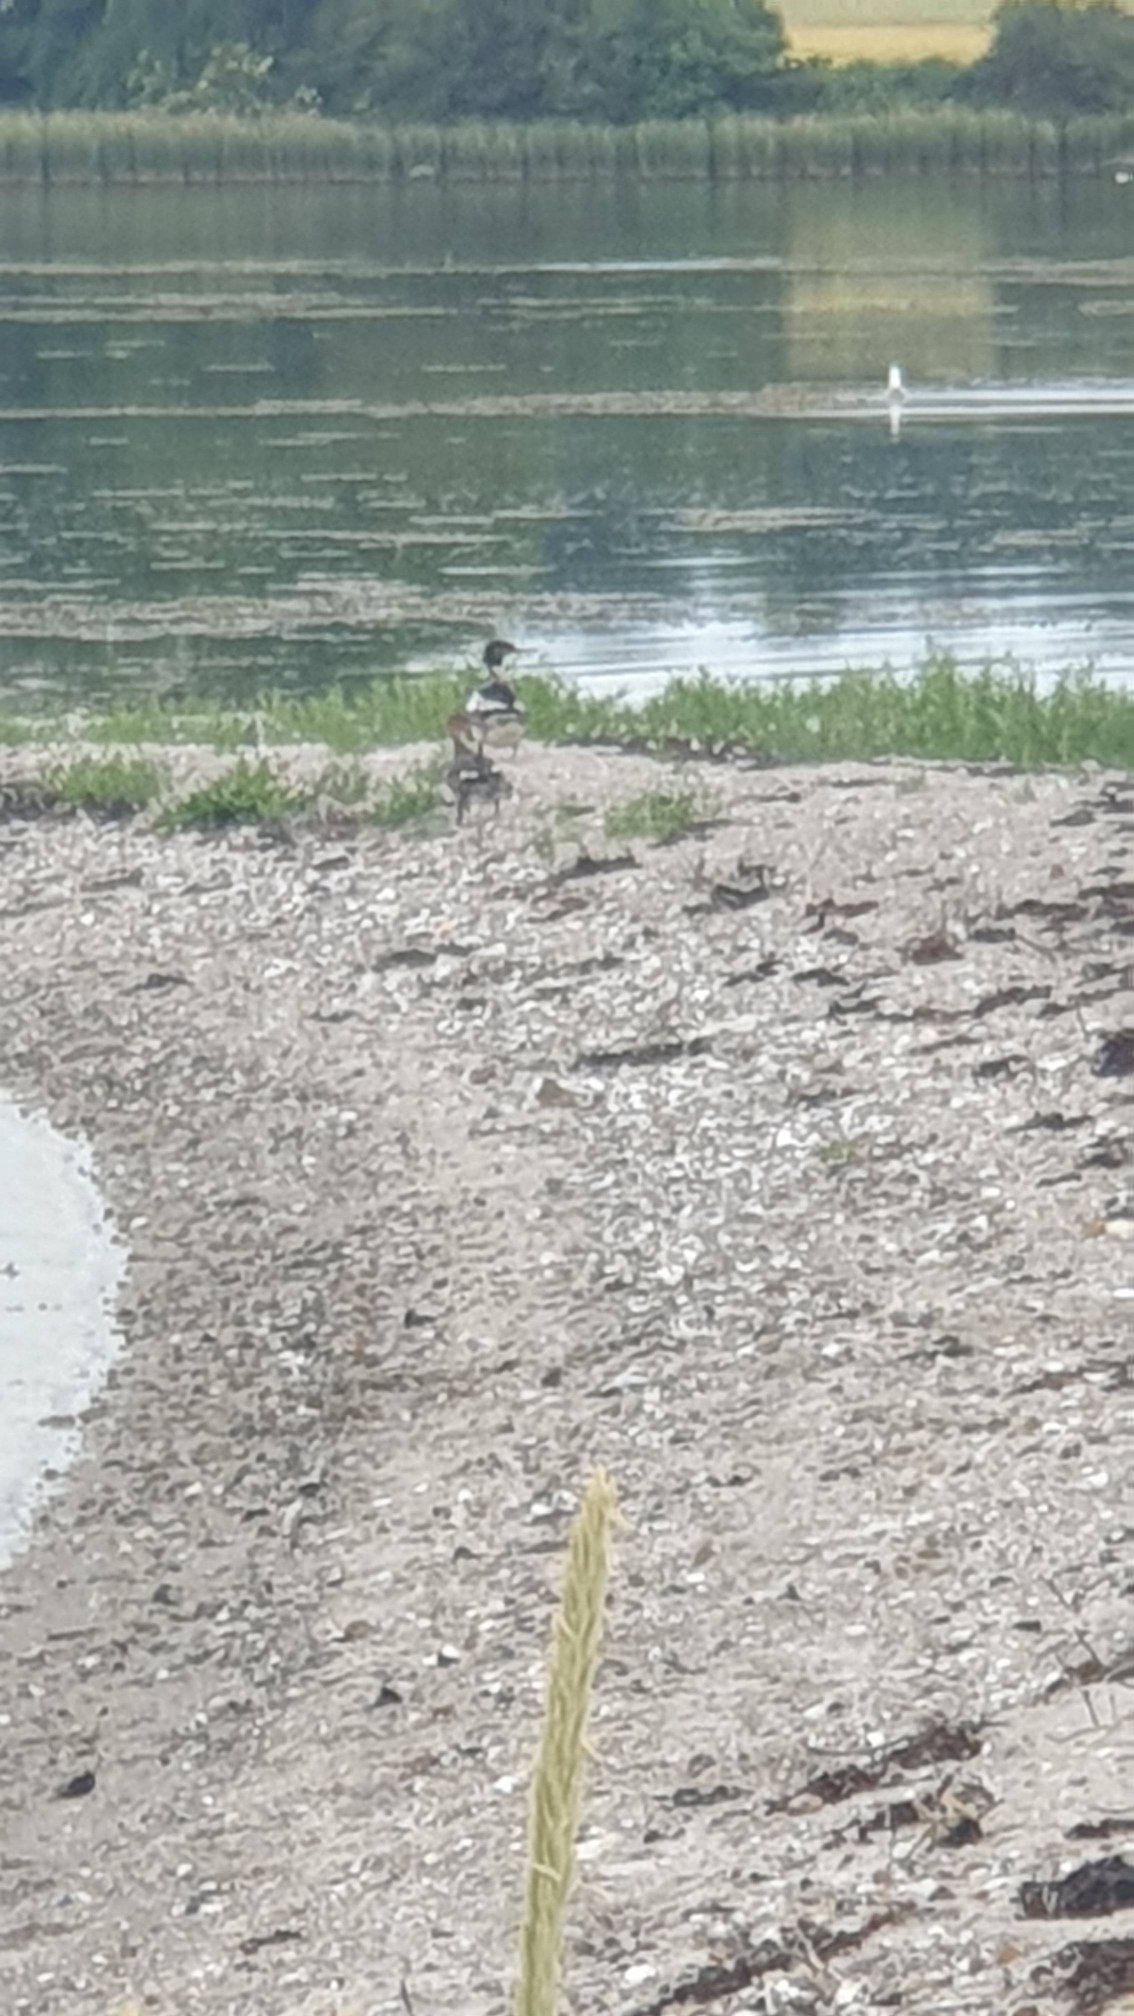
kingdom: Animalia
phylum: Chordata
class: Aves
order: Anseriformes
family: Anatidae
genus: Mergus
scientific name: Mergus serrator
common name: Toppet skallesluger
